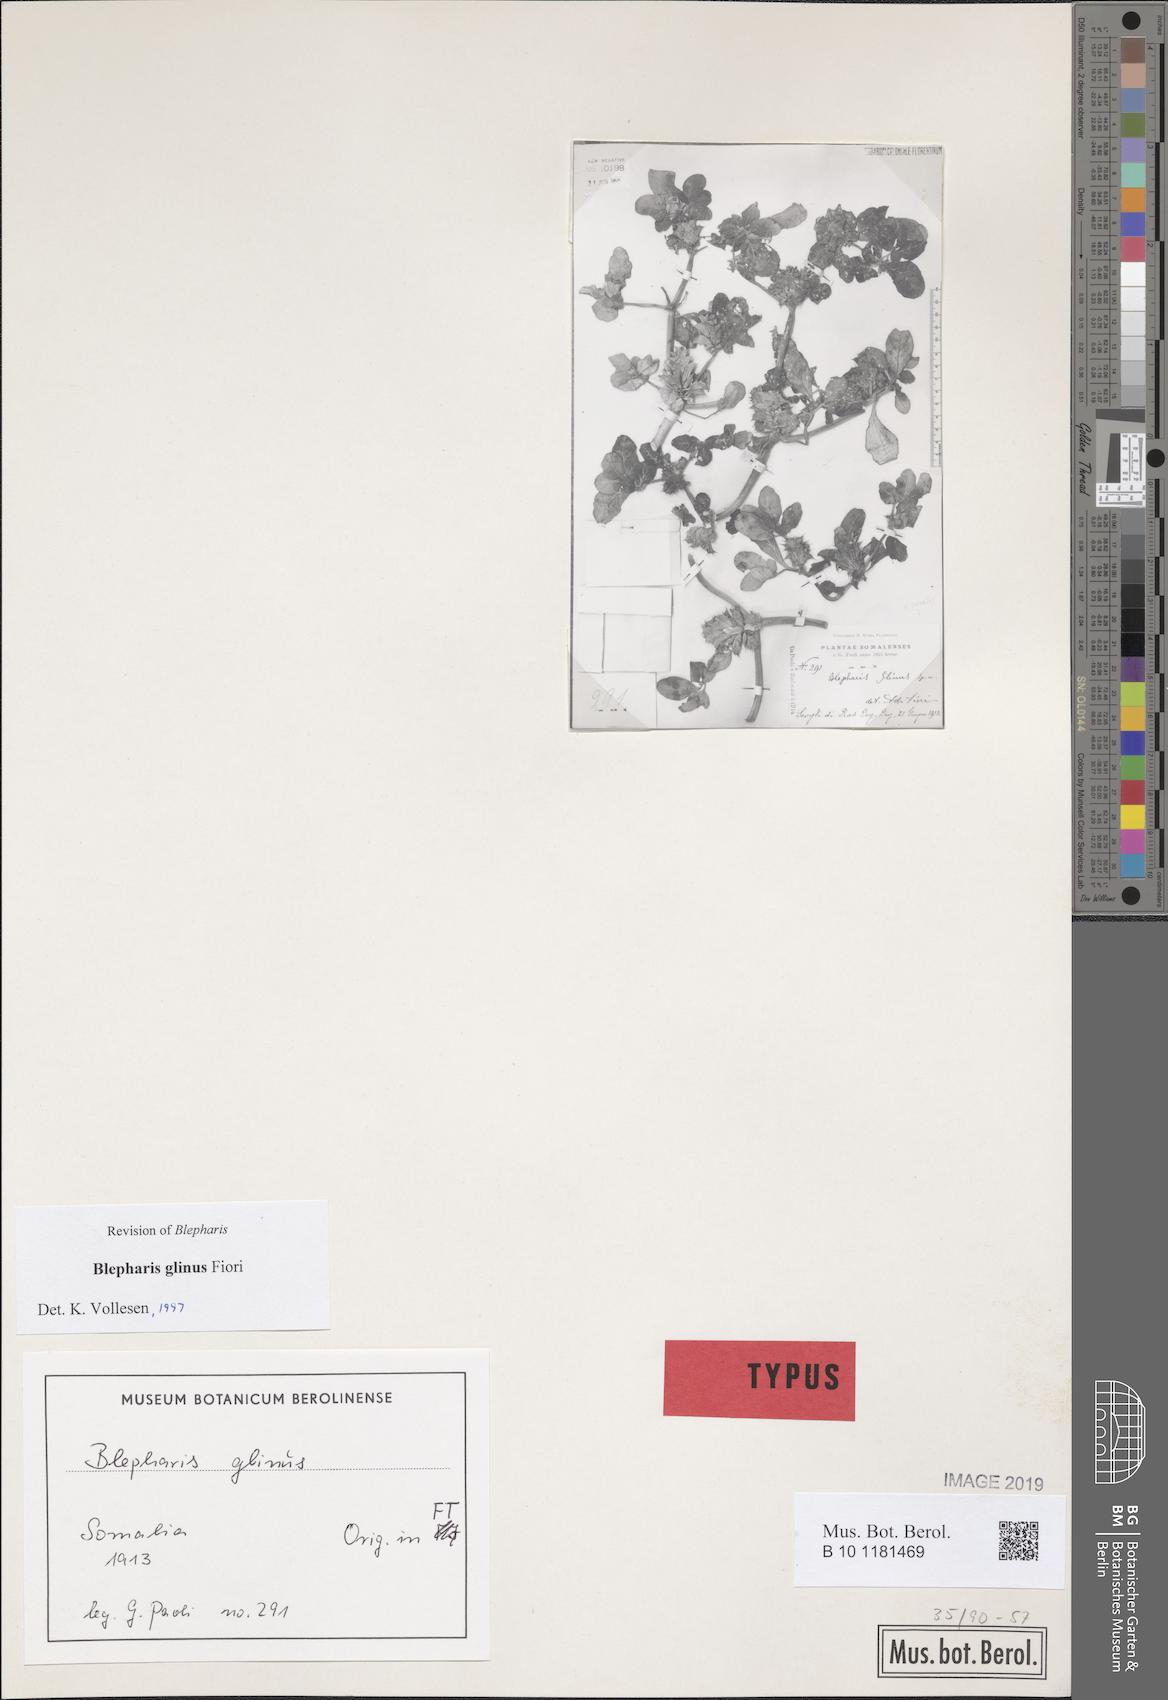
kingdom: Plantae
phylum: Tracheophyta
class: Magnoliopsida
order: Lamiales
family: Acanthaceae
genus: Blepharis
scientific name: Blepharis glinus
